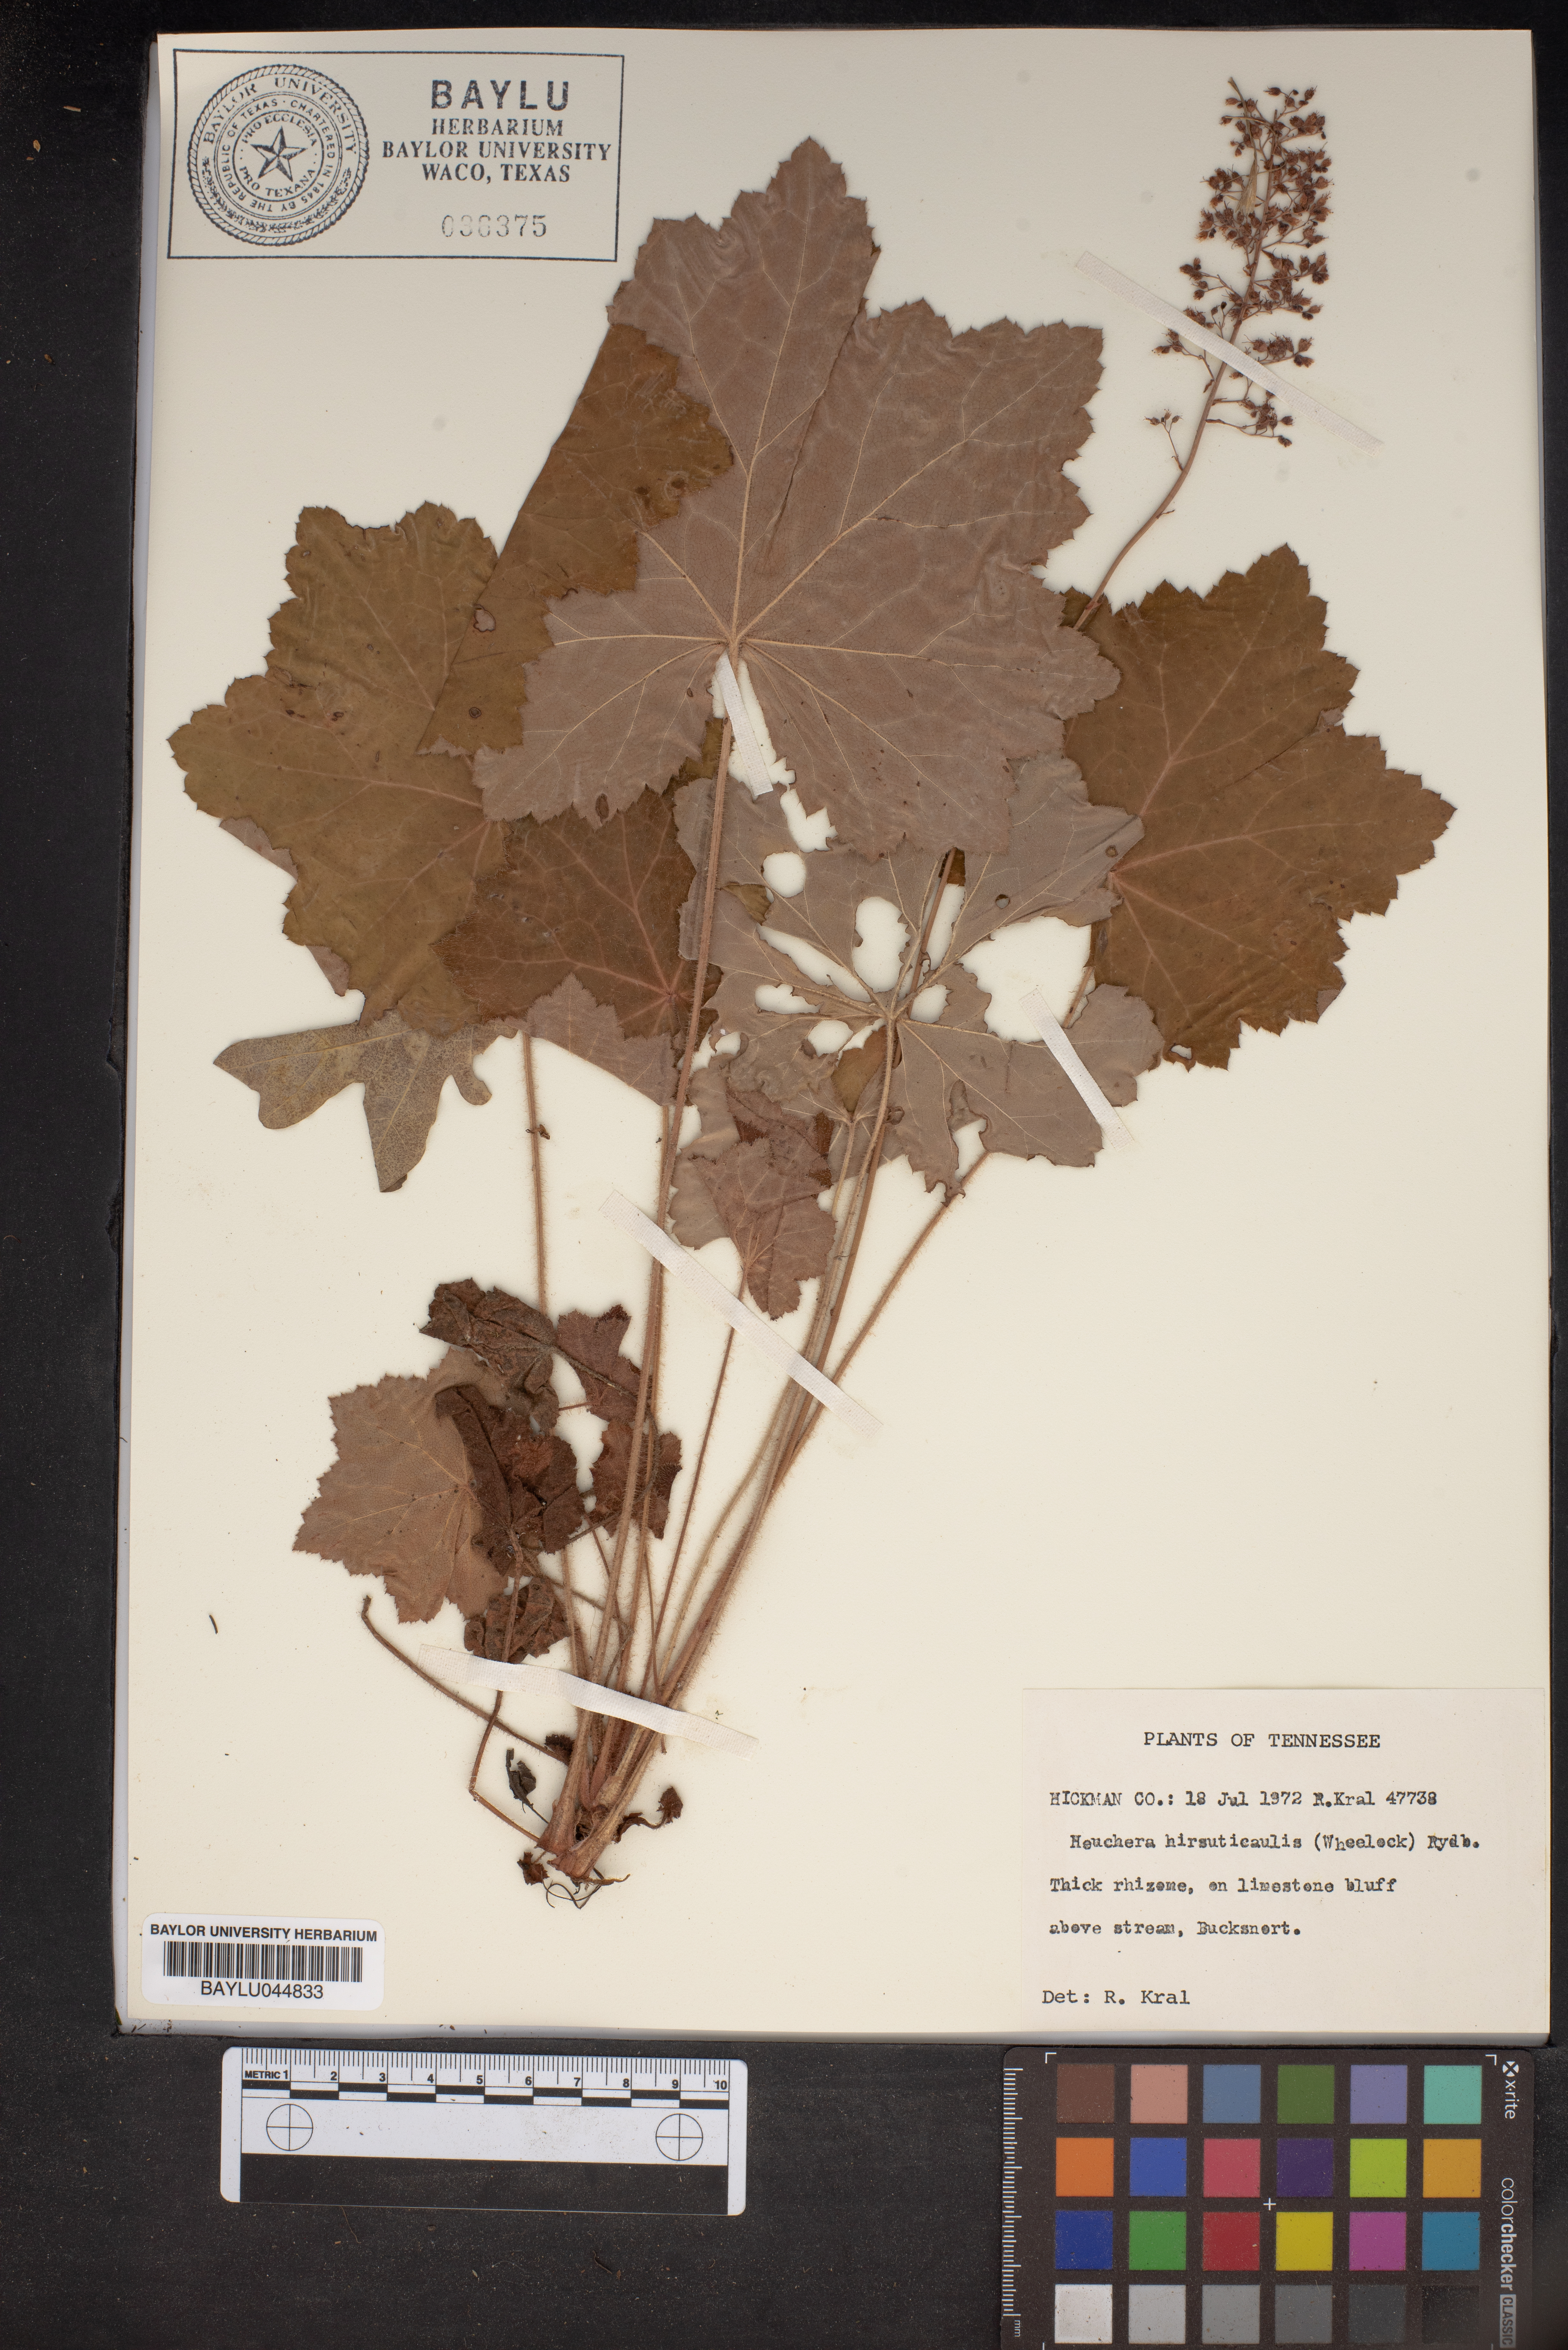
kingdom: Plantae
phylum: Tracheophyta
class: Magnoliopsida
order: Saxifragales
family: Saxifragaceae
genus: Heuchera
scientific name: Heuchera americana
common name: Alumroot
